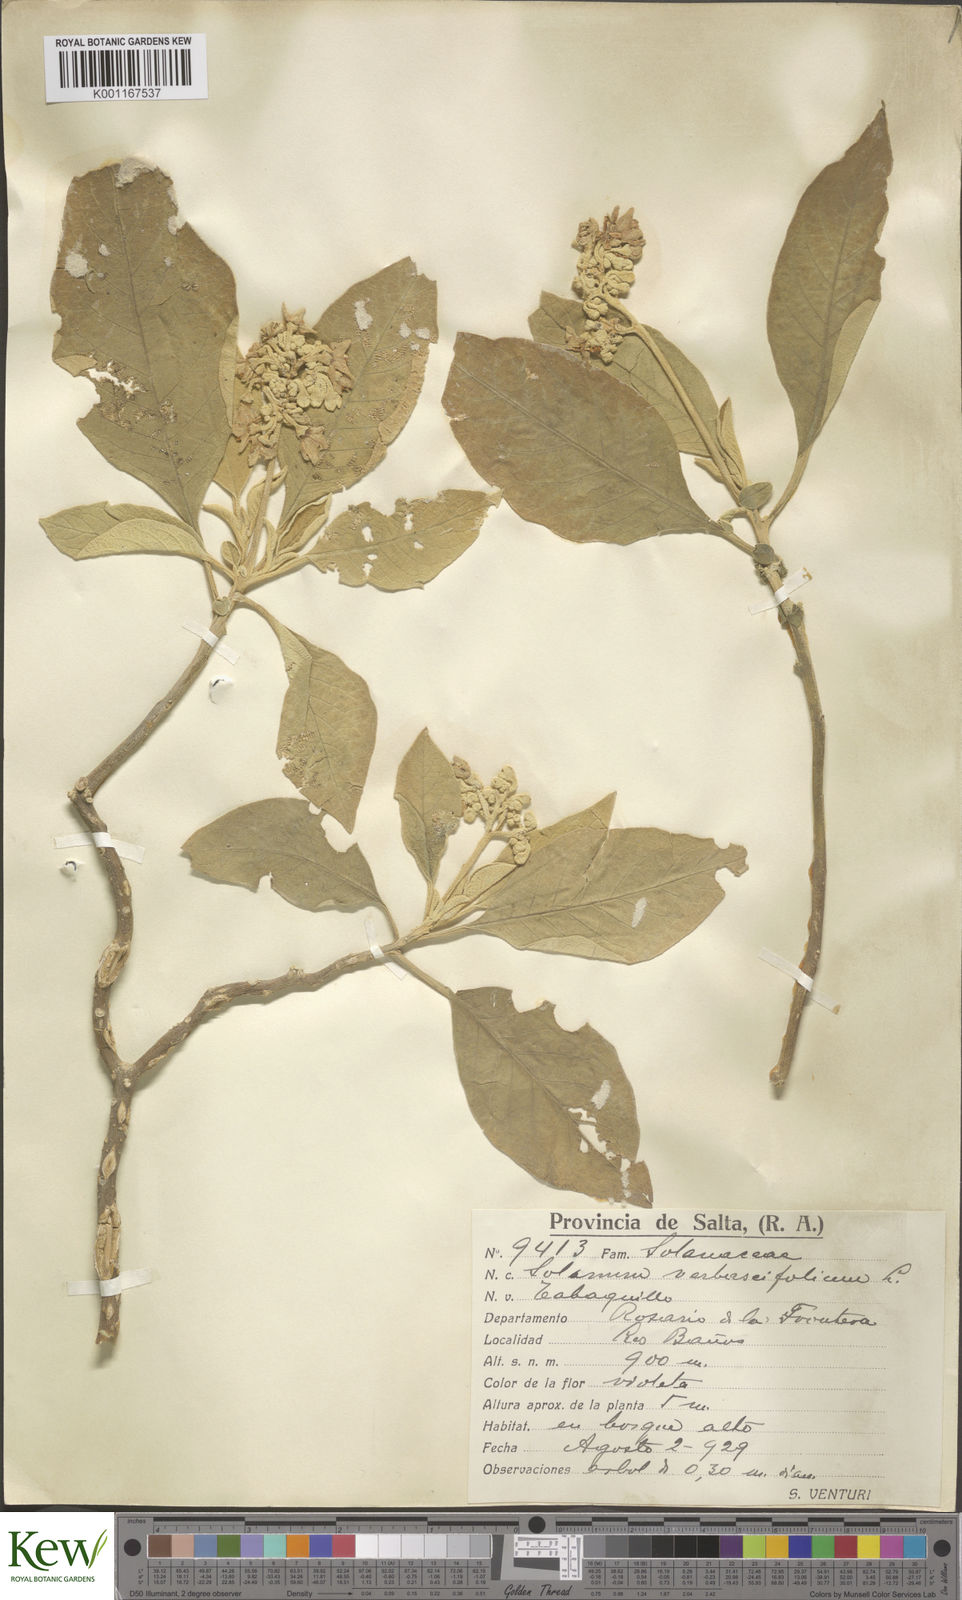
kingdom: Plantae
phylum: Tracheophyta
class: Magnoliopsida
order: Solanales
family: Solanaceae
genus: Solanum
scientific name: Solanum erianthum
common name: Tobacco-tree
